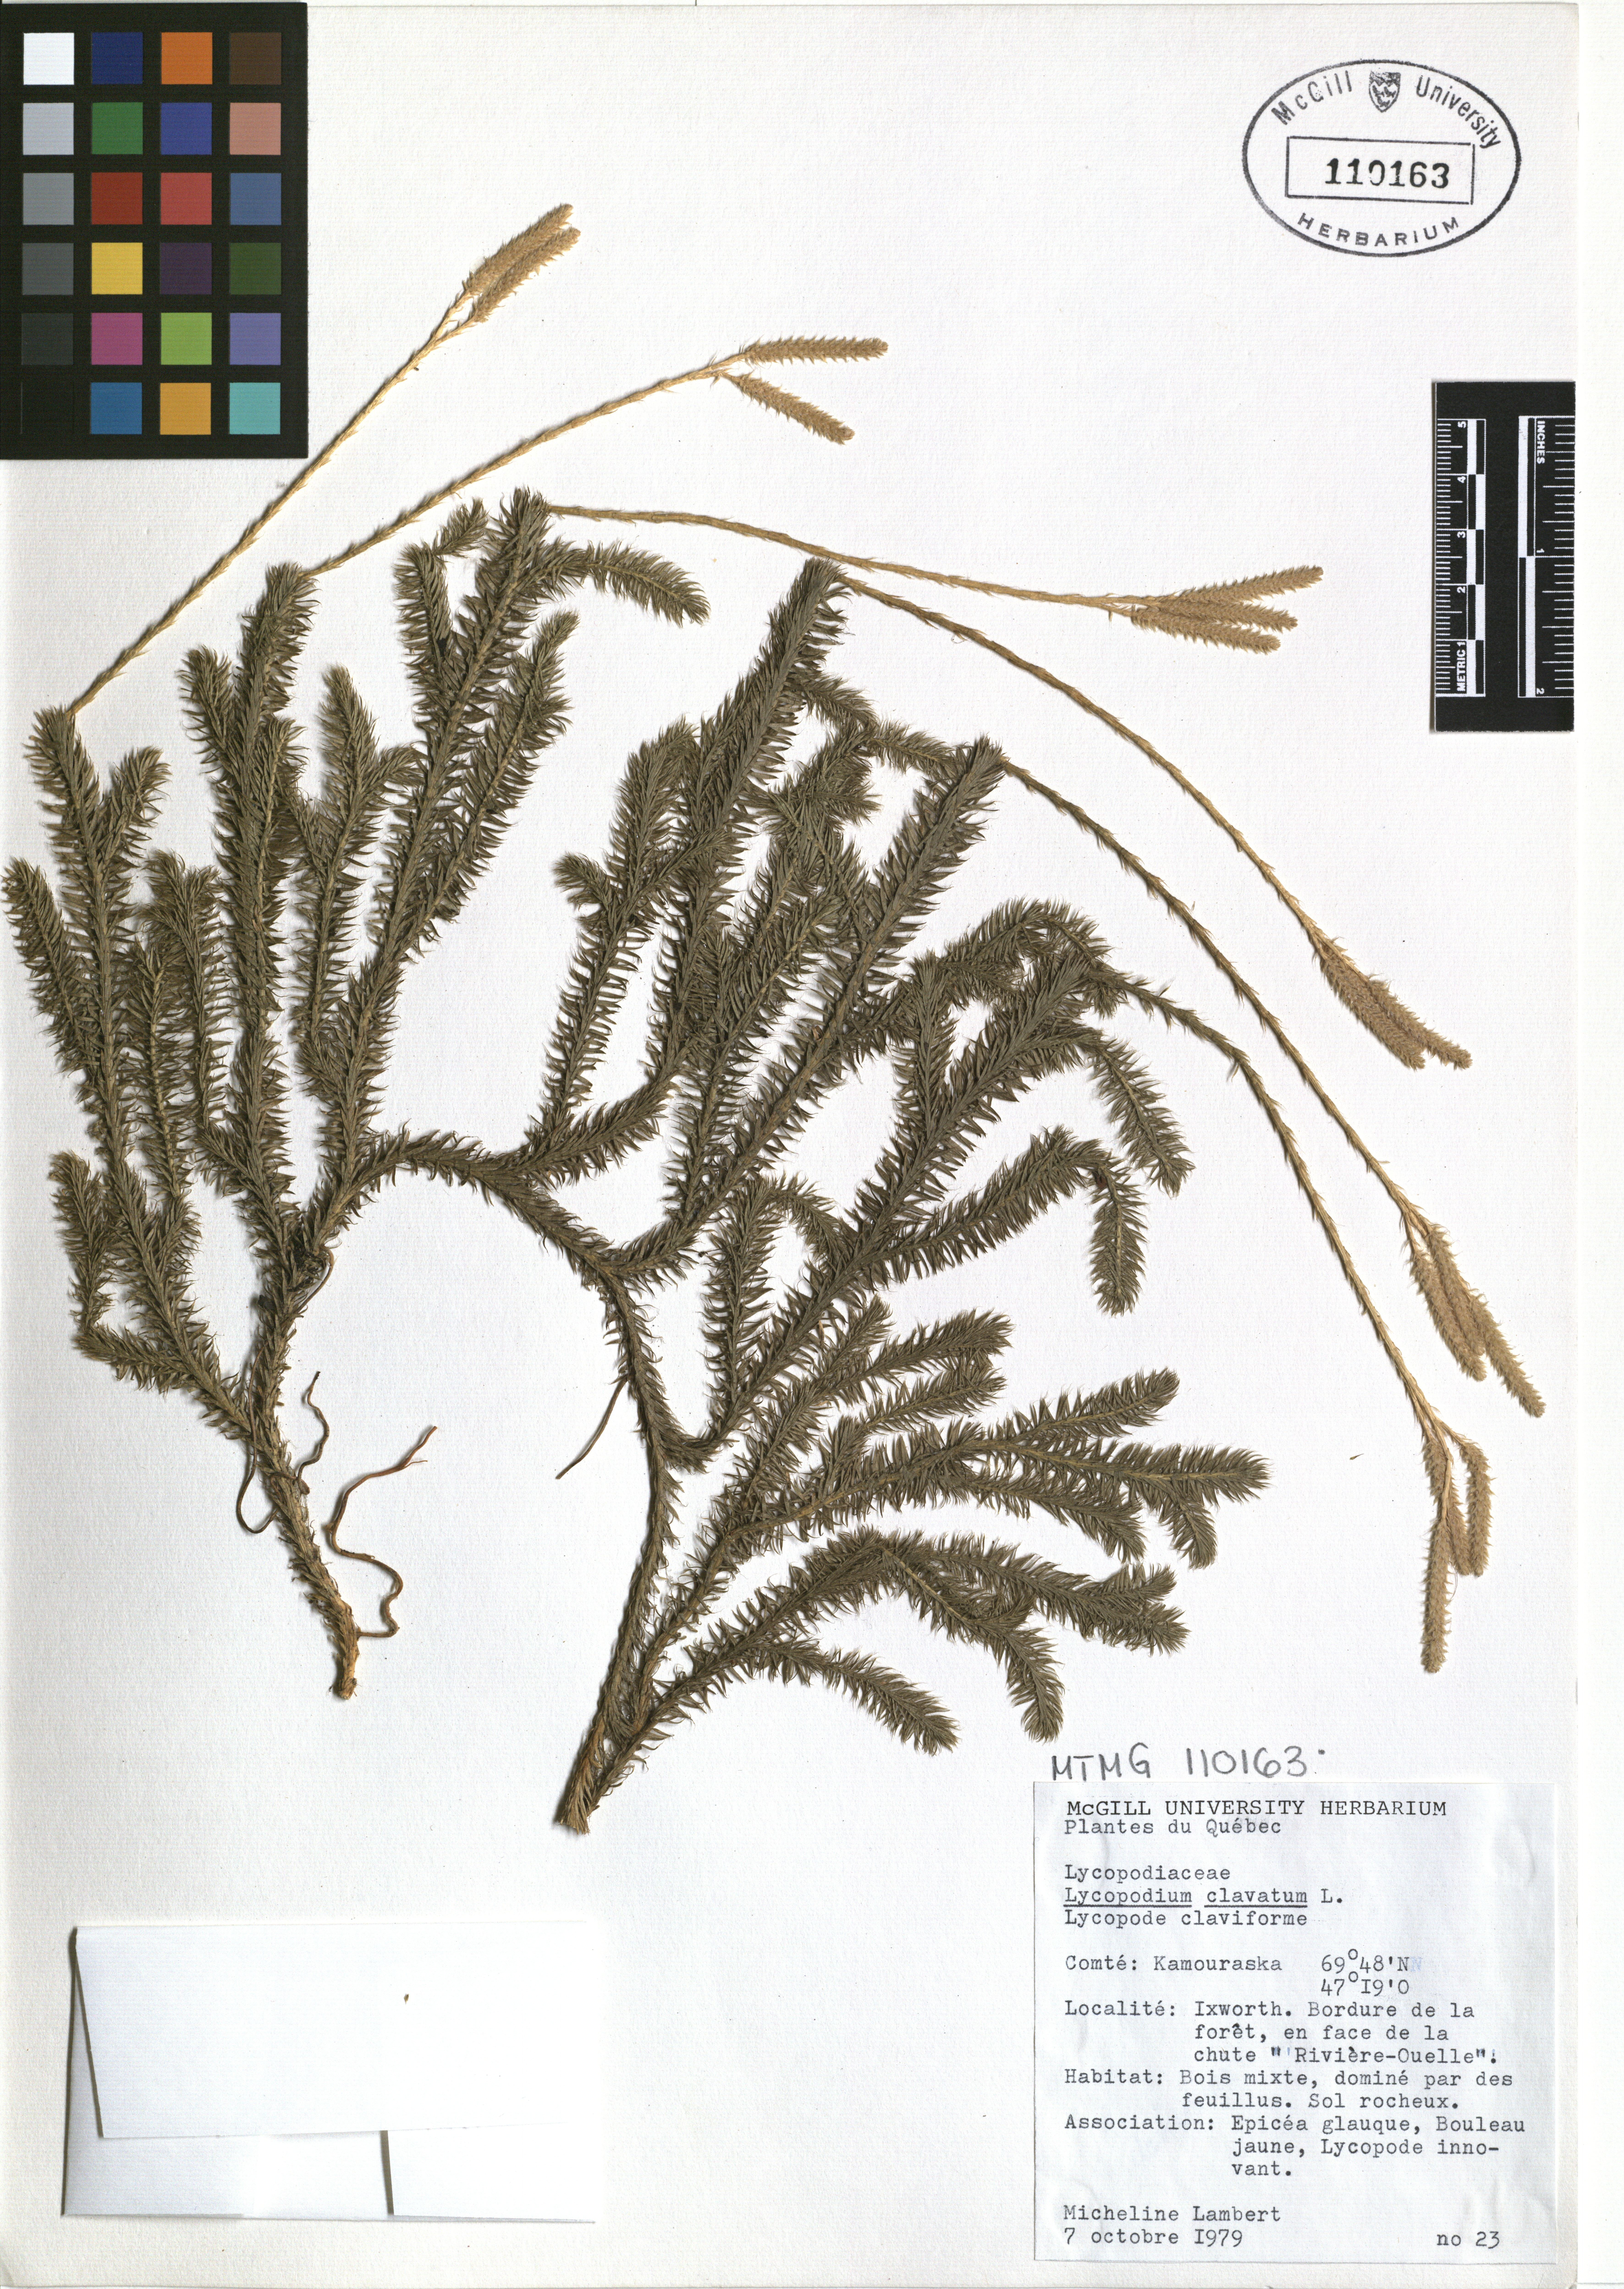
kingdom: Plantae
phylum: Tracheophyta
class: Lycopodiopsida
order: Lycopodiales
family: Lycopodiaceae
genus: Lycopodium
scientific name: Lycopodium clavatum
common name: Stag's-horn clubmoss
